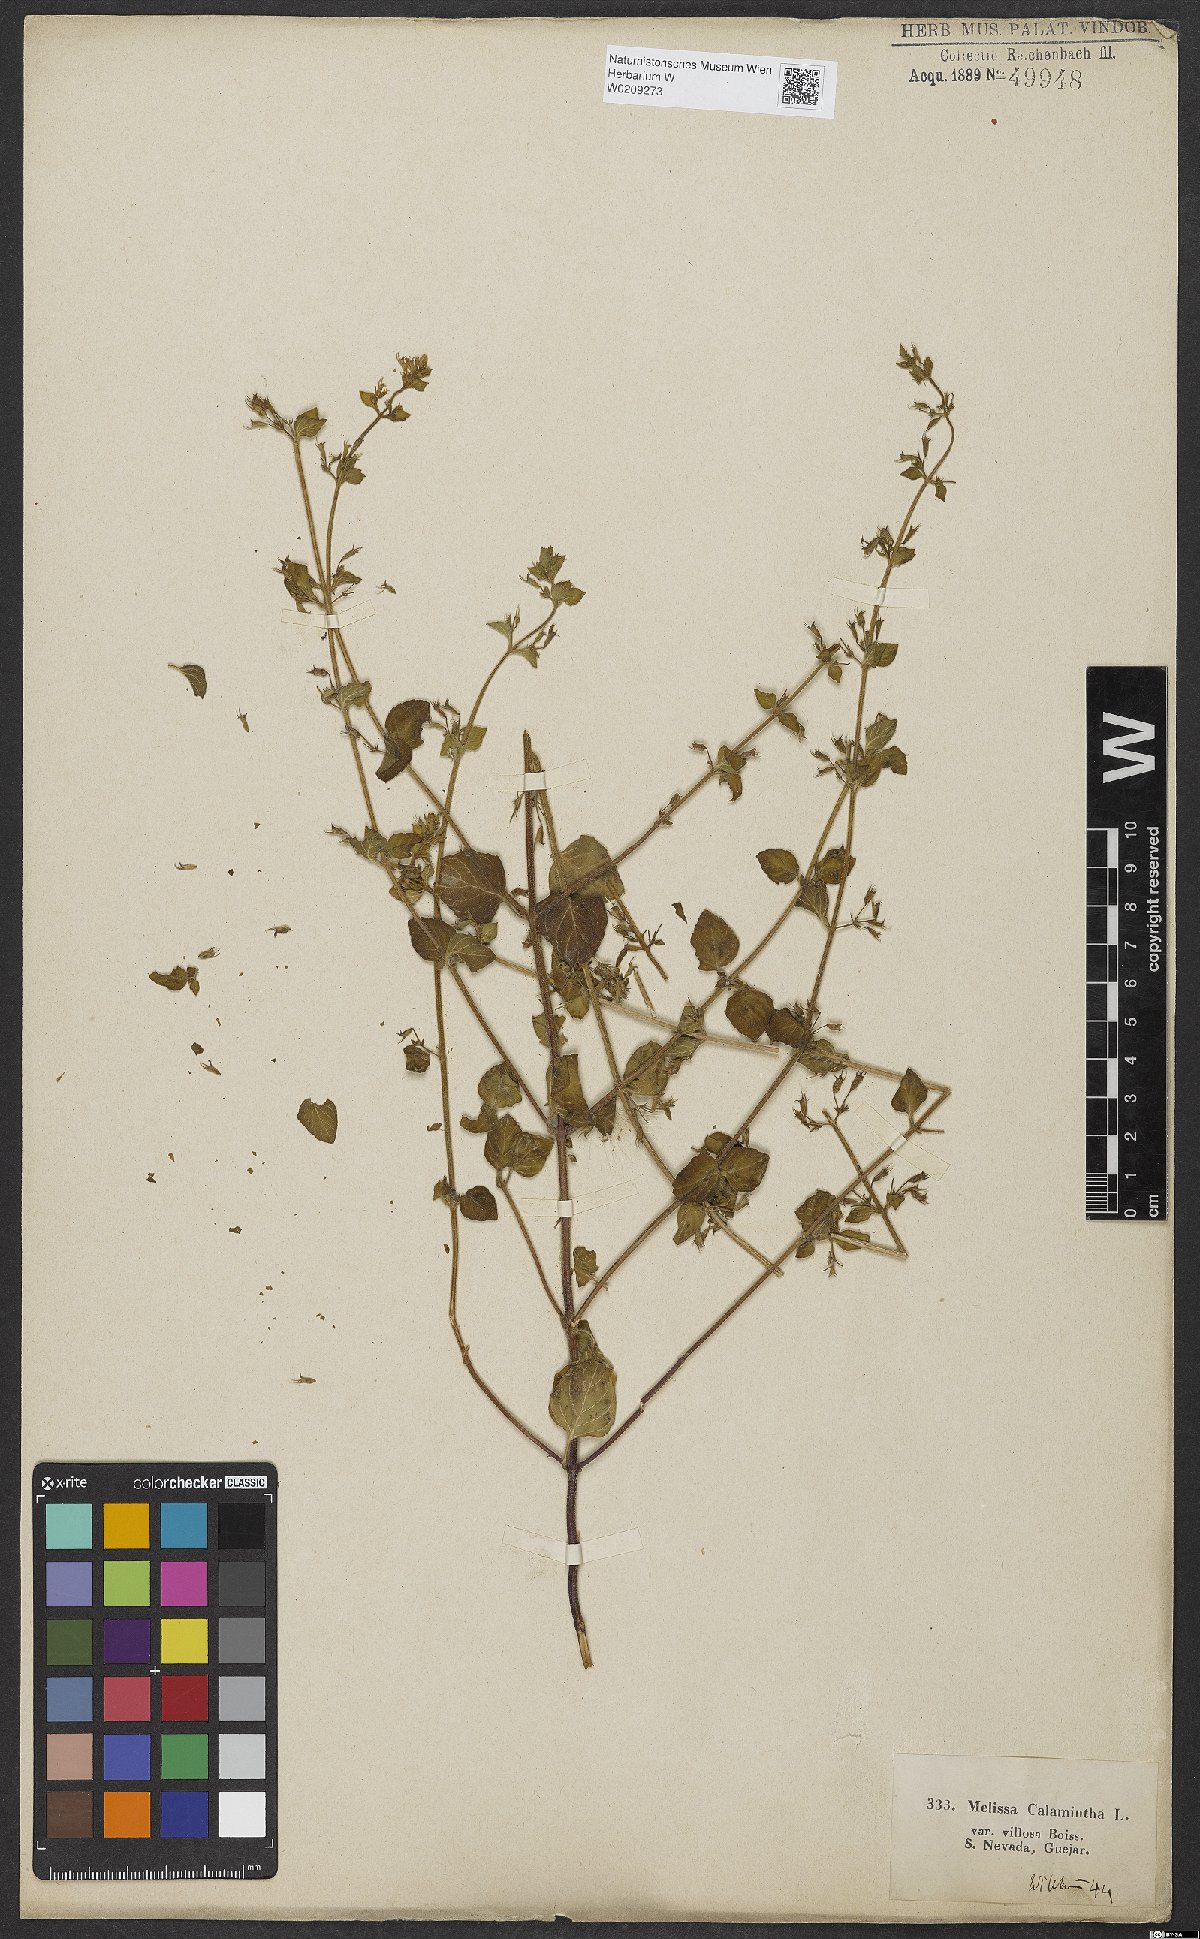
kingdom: Plantae
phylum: Tracheophyta
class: Magnoliopsida
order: Lamiales
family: Lamiaceae
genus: Clinopodium
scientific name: Clinopodium nepeta
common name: Lesser calamint
